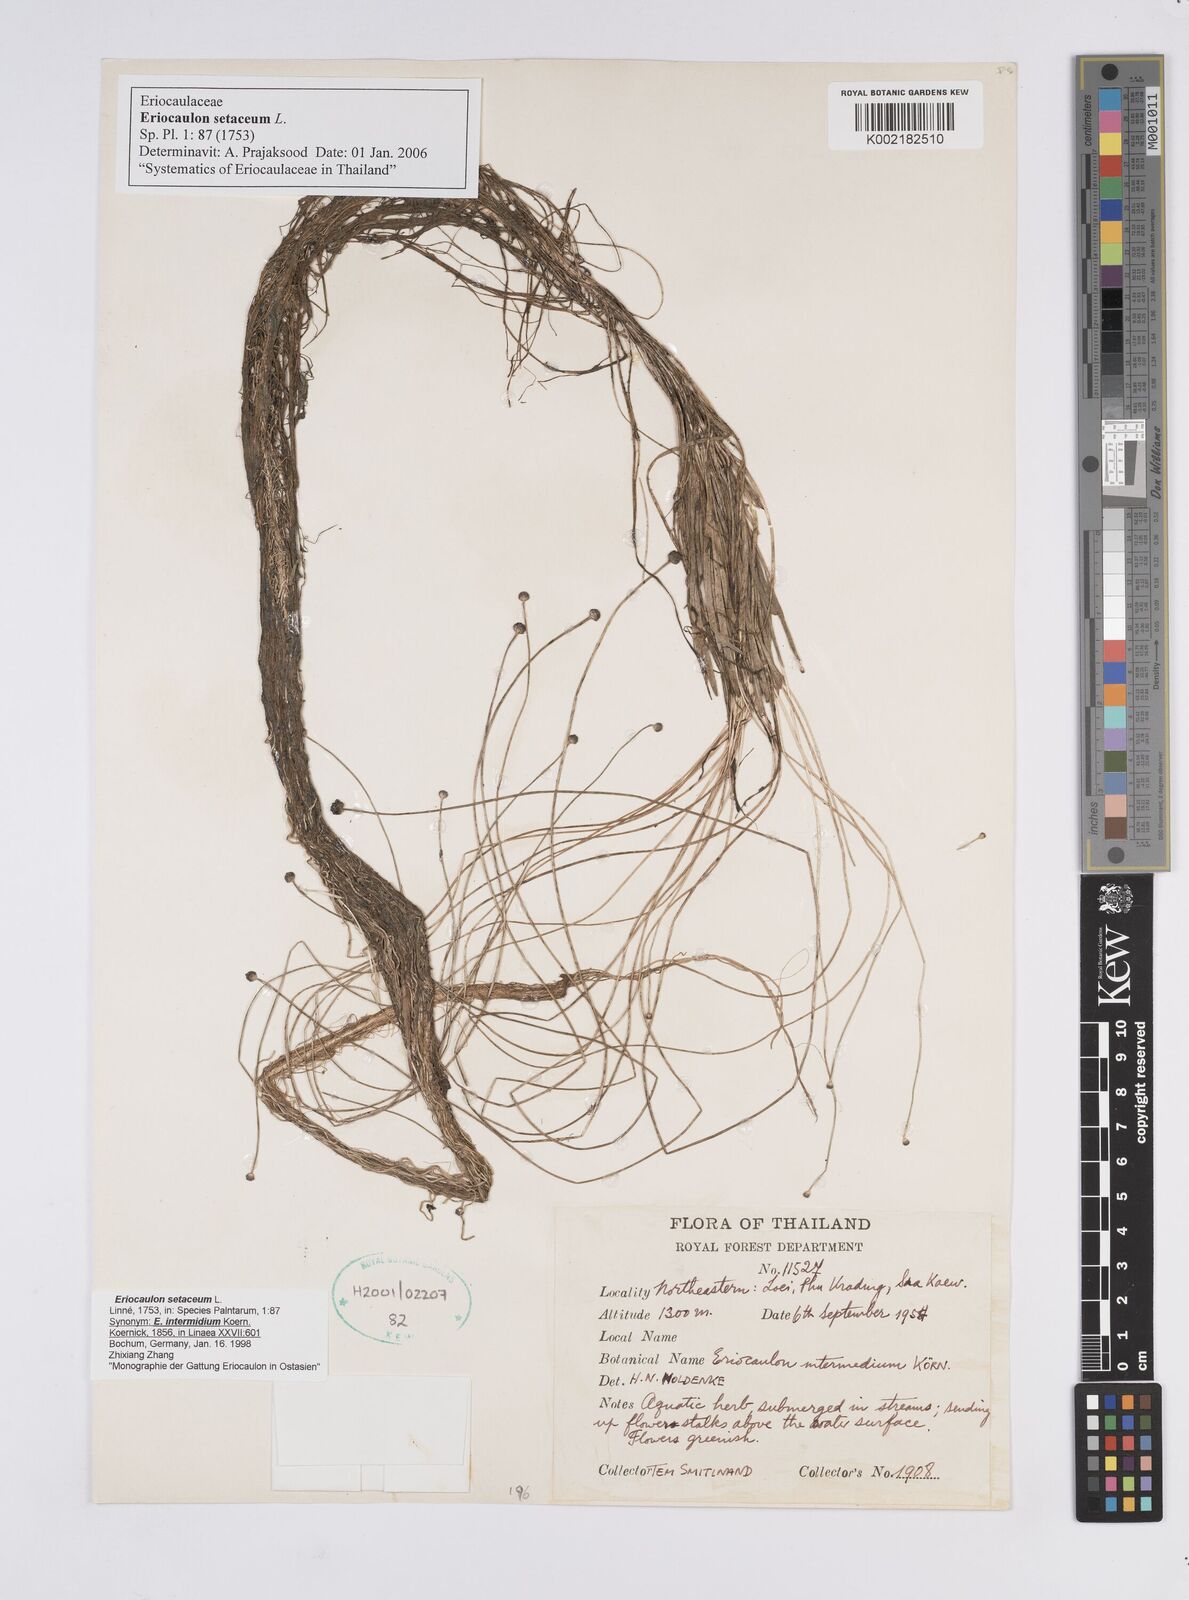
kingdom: Plantae
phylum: Tracheophyta
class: Liliopsida
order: Poales
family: Eriocaulaceae
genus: Eriocaulon
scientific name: Eriocaulon setaceum
